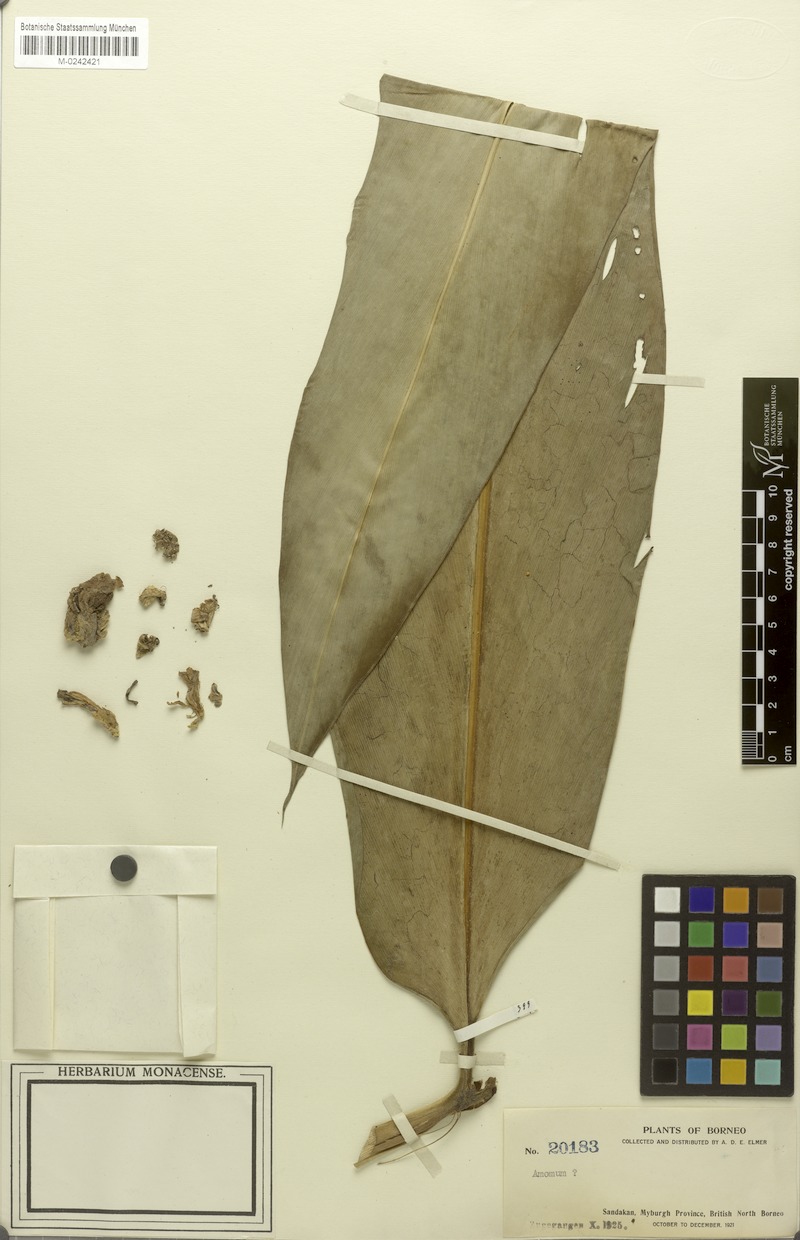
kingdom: Plantae
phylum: Tracheophyta
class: Liliopsida
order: Zingiberales
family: Zingiberaceae
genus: Amomum
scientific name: Amomum
